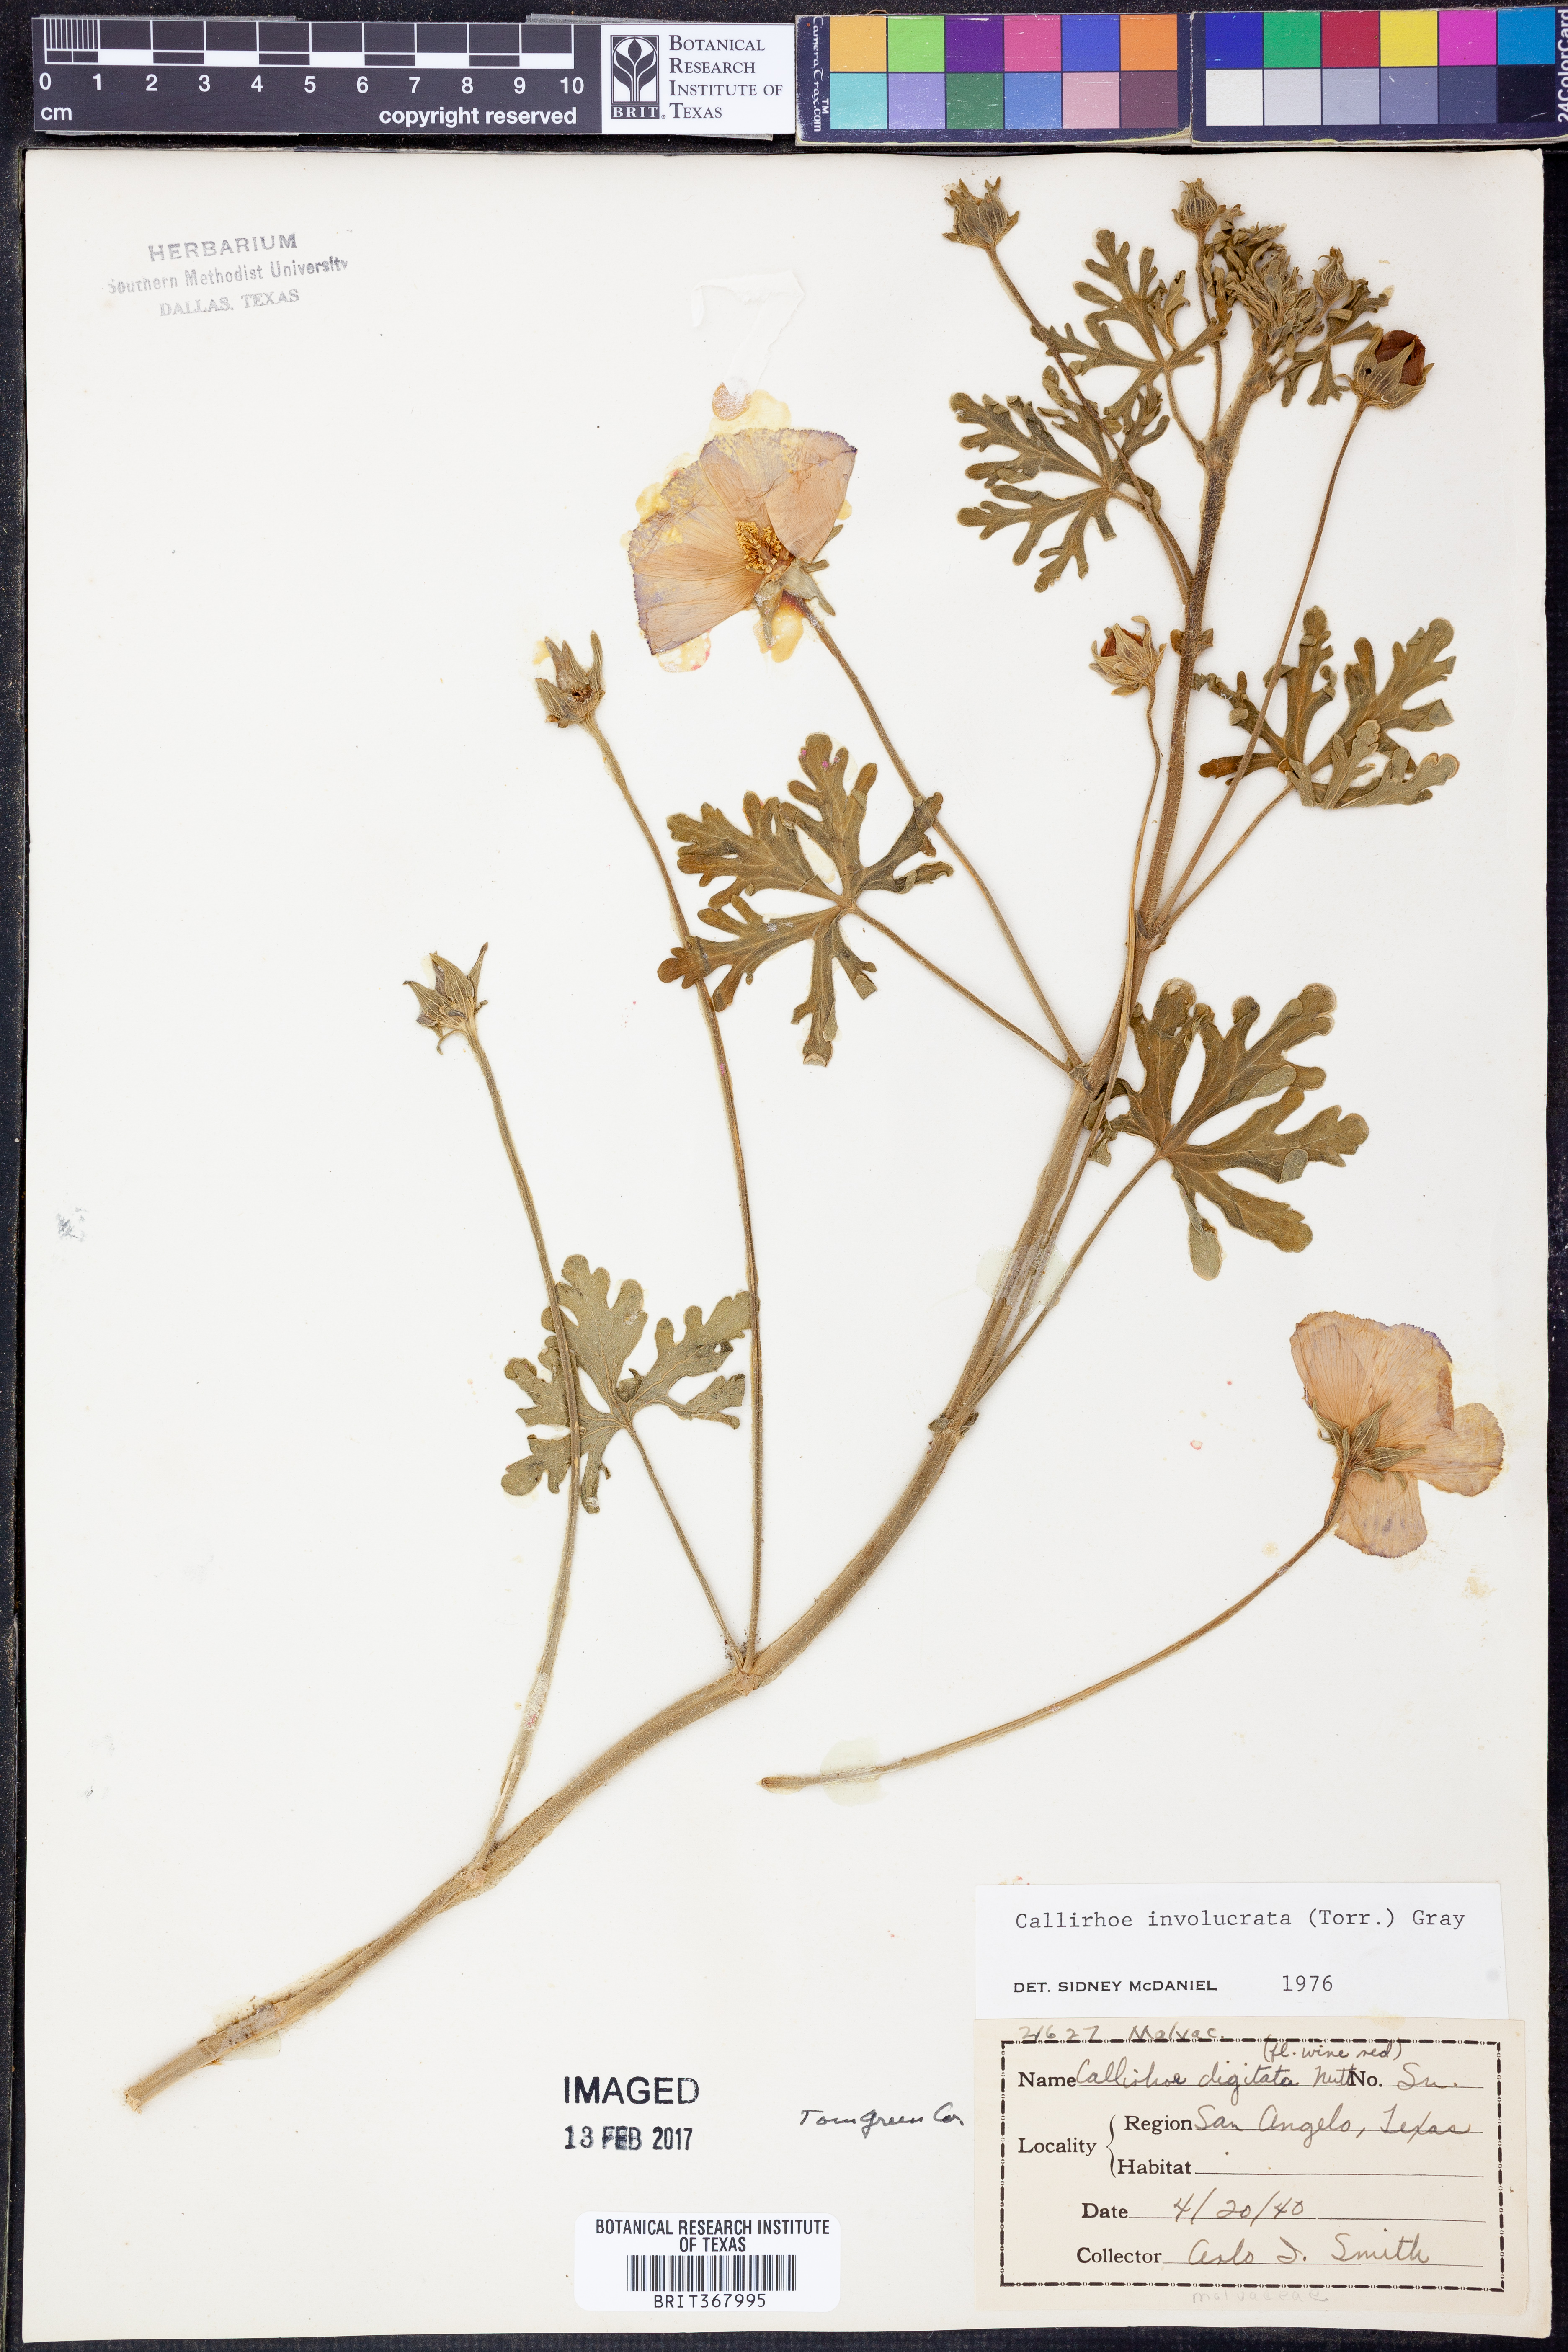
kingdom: Plantae
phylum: Tracheophyta
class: Magnoliopsida
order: Malvales
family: Malvaceae
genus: Callirhoe
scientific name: Callirhoe involucrata
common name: Purple poppy-mallow
